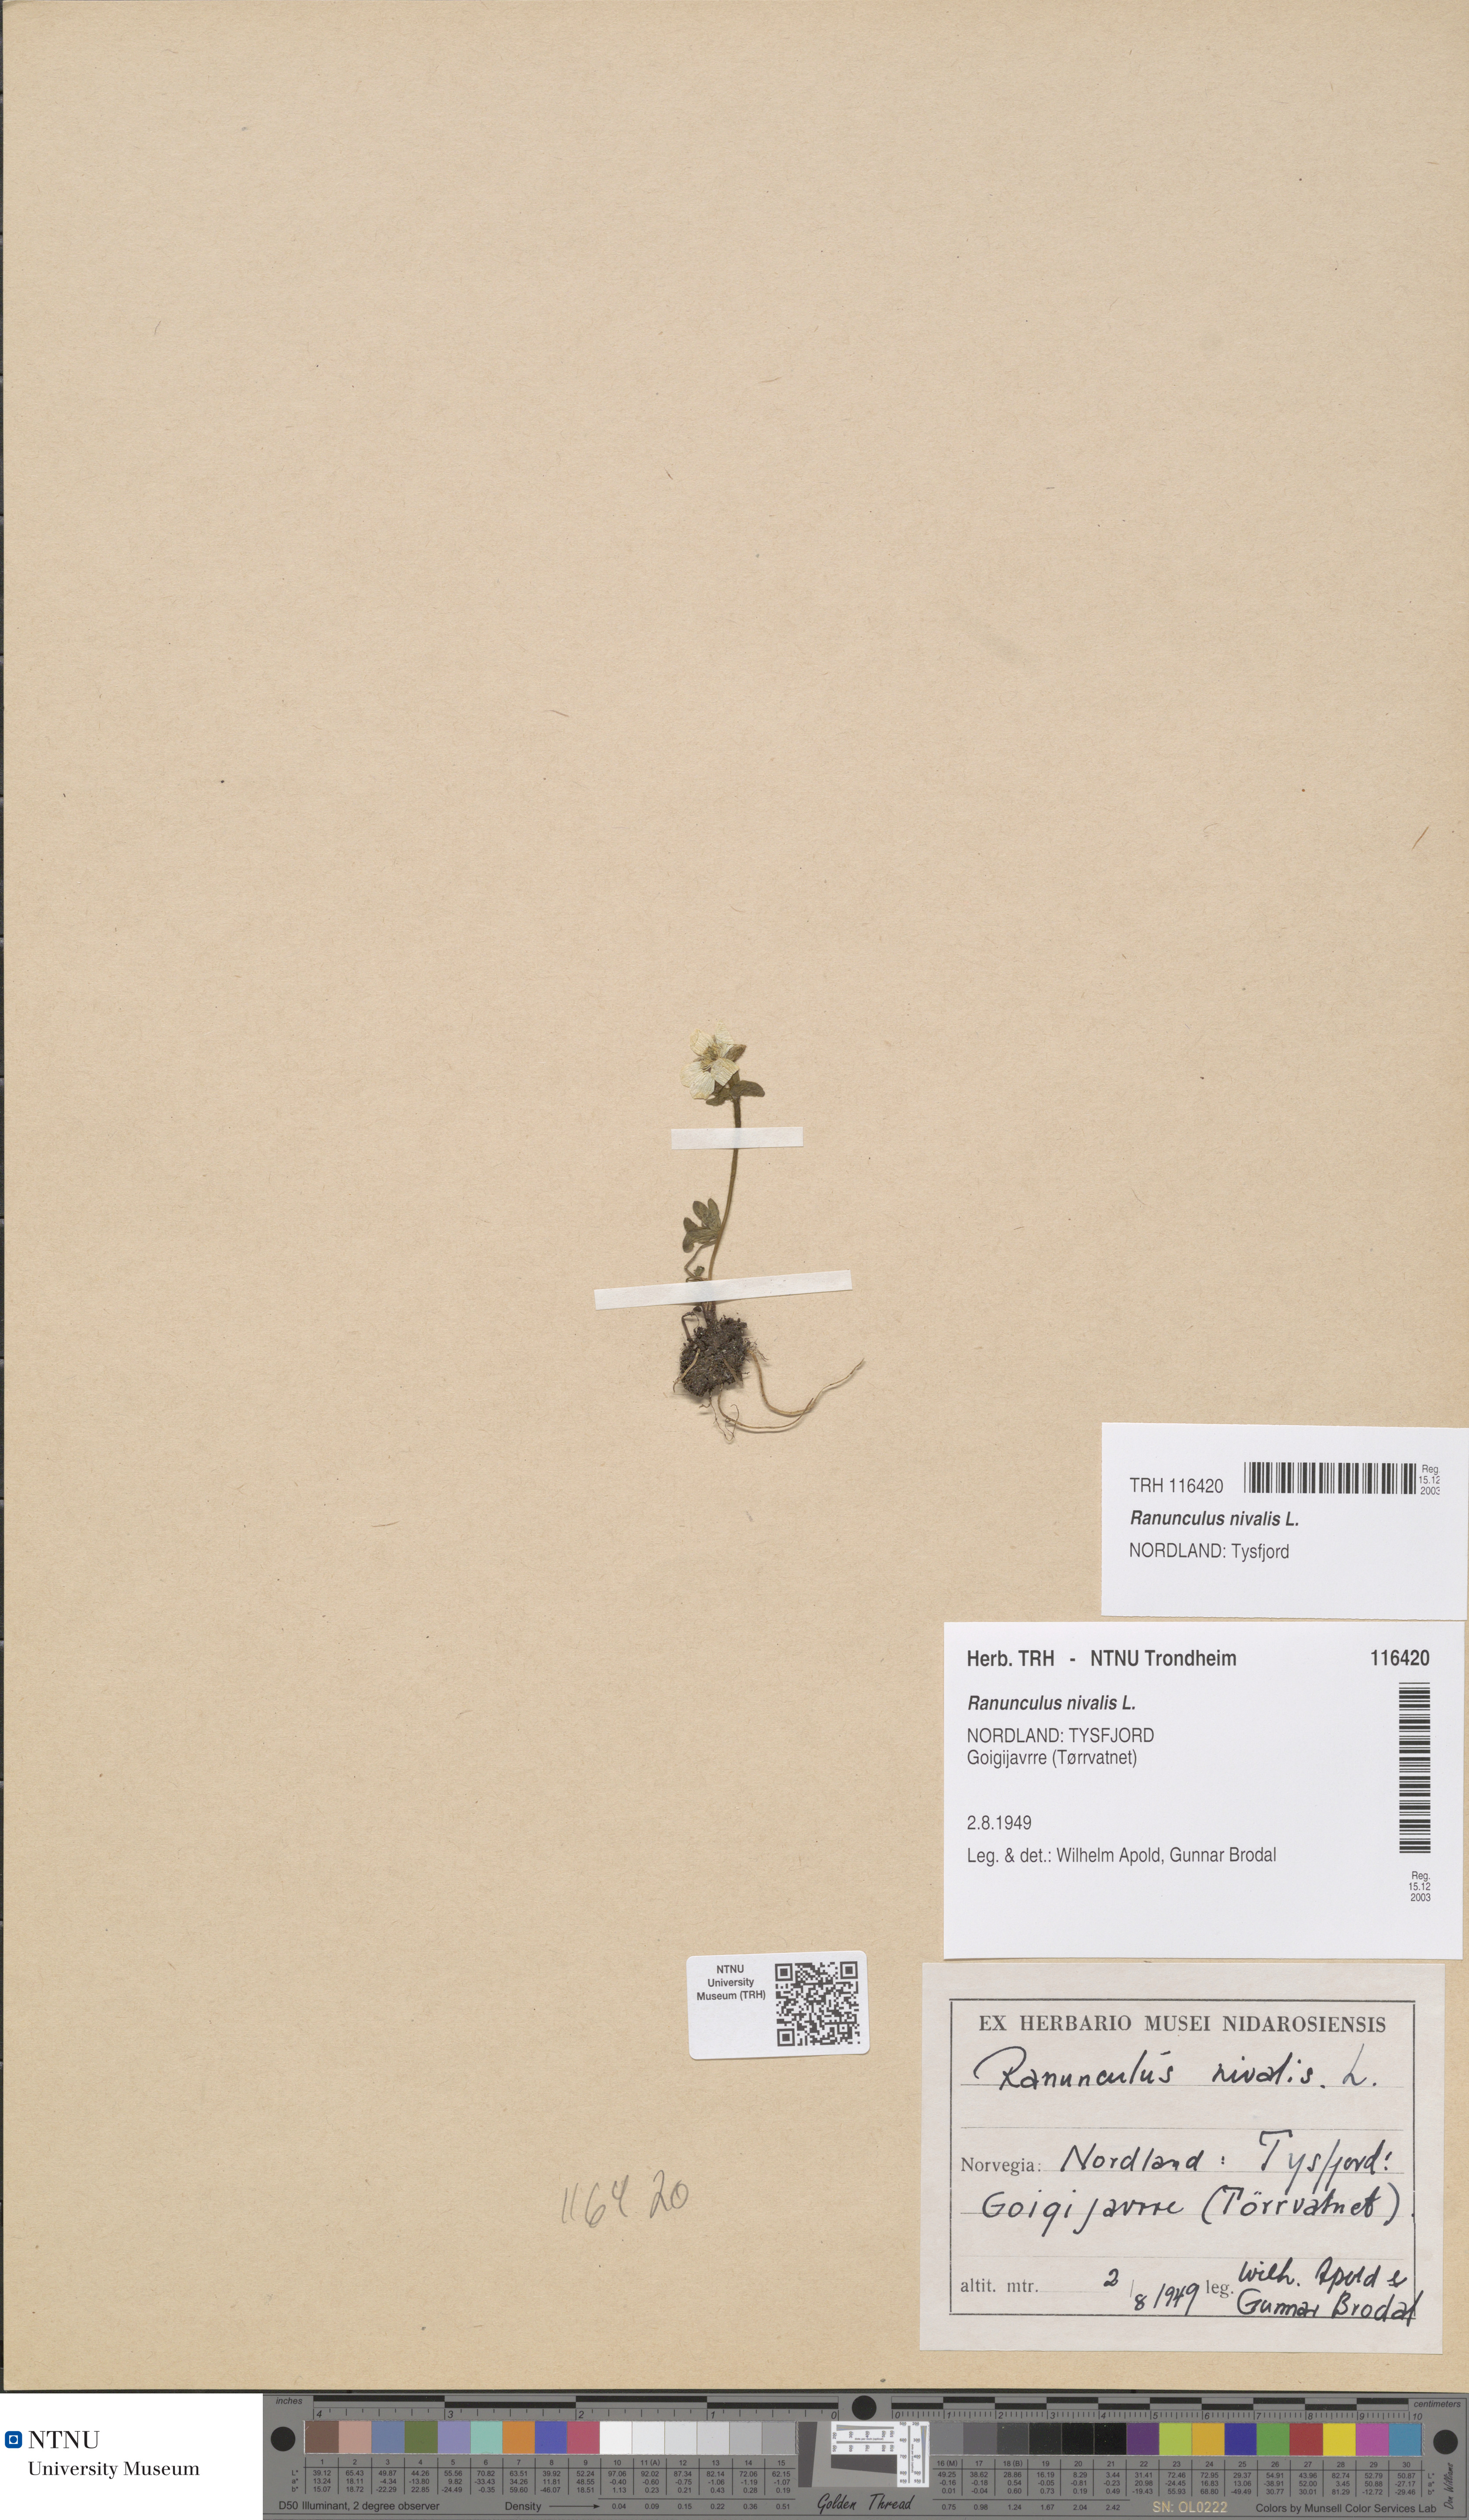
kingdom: Plantae
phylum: Tracheophyta
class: Magnoliopsida
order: Ranunculales
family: Ranunculaceae
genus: Ranunculus
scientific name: Ranunculus nivalis
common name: Snow buttercup
